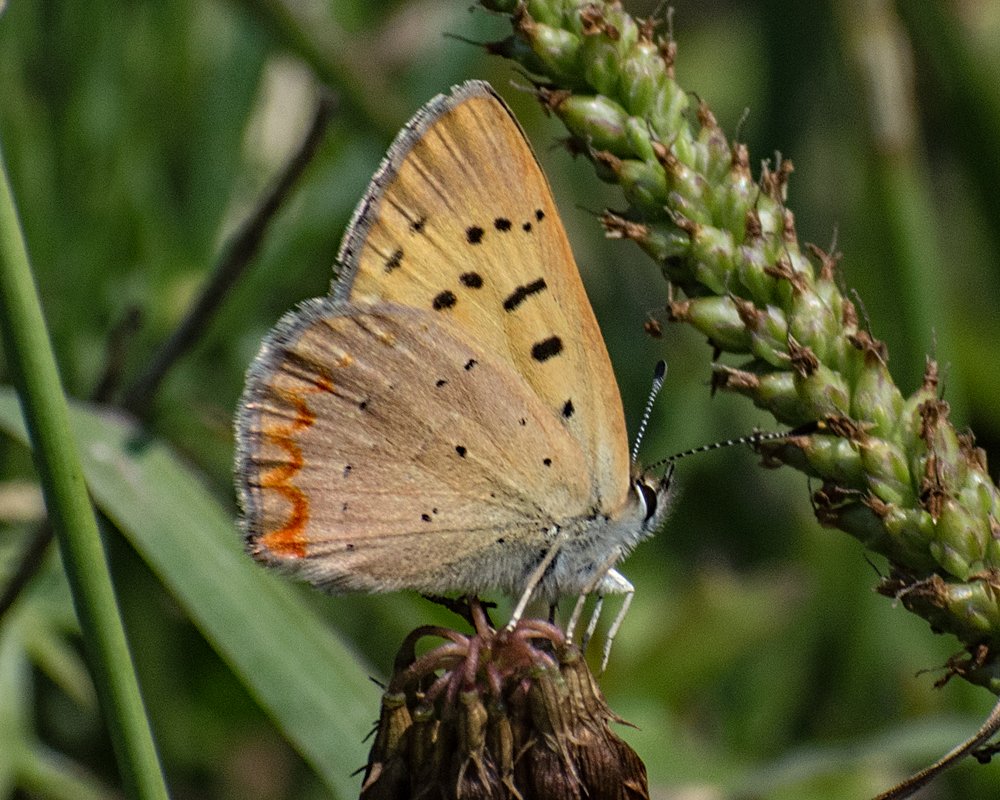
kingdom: Animalia
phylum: Arthropoda
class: Insecta
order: Lepidoptera
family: Sesiidae
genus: Sesia
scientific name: Sesia Lycaena helloides
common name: Purplish Copper
